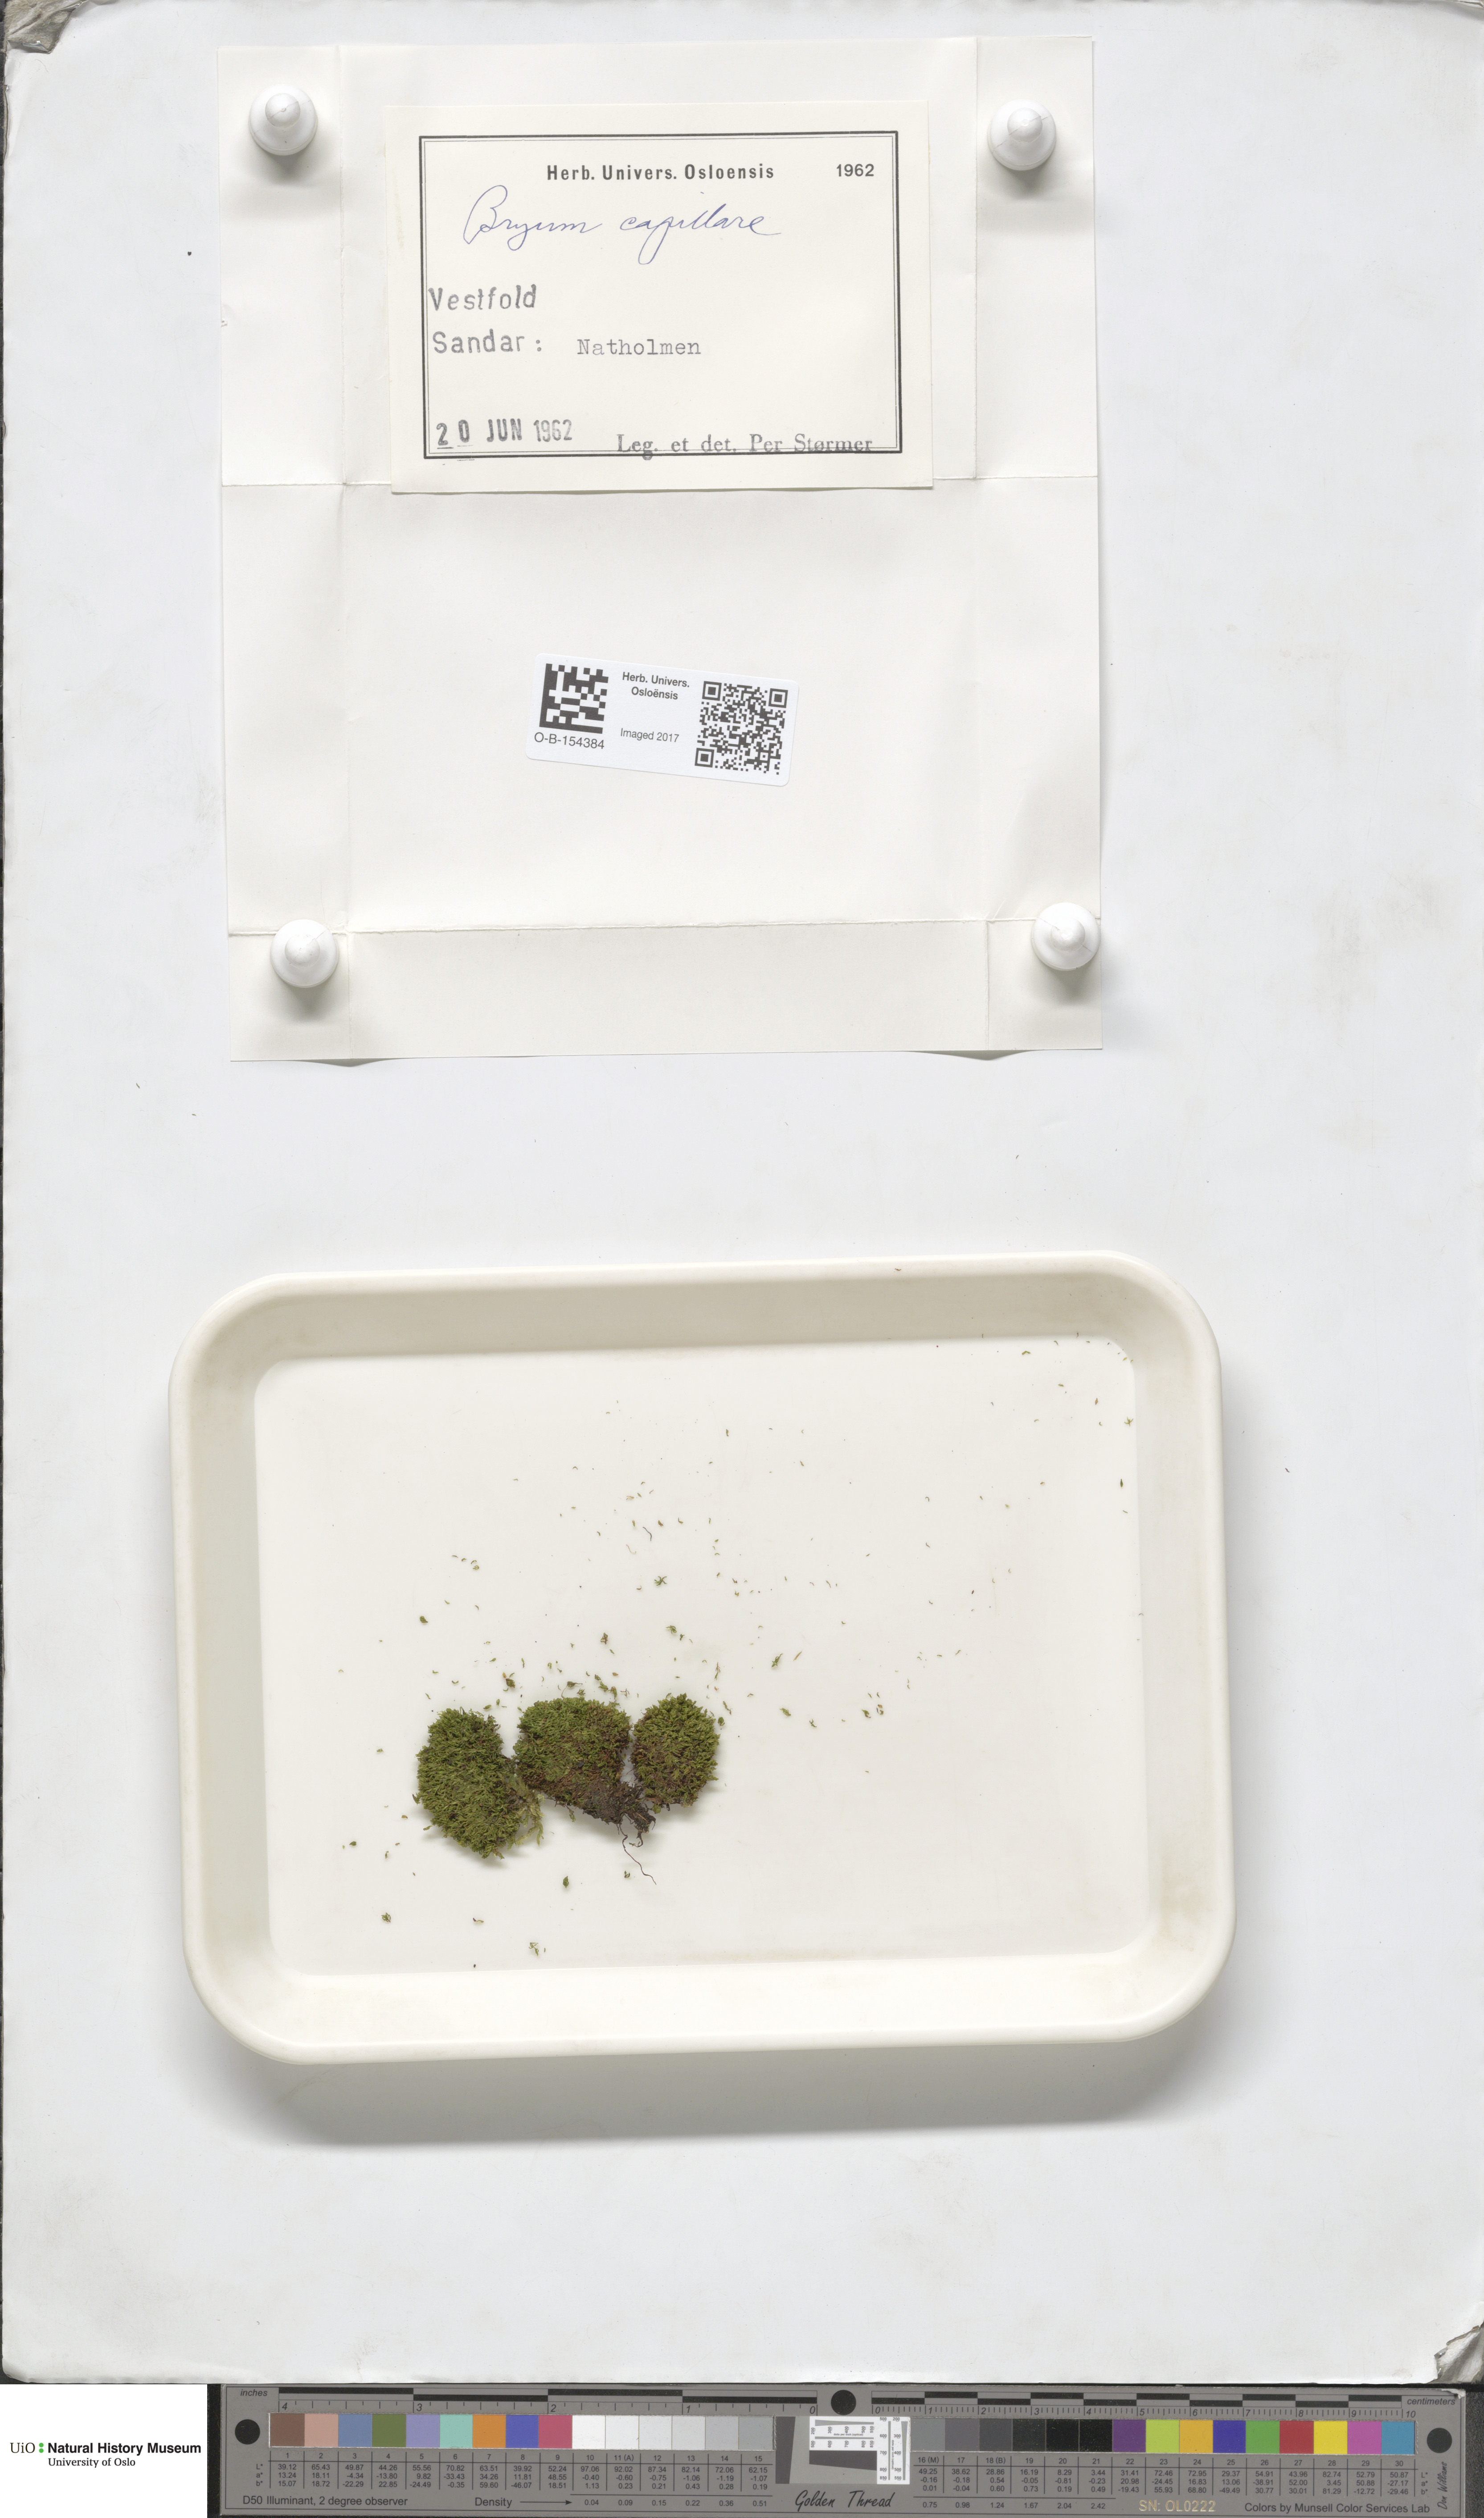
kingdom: Plantae
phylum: Bryophyta
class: Bryopsida
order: Bryales
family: Bryaceae
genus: Rosulabryum
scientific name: Rosulabryum capillare
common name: Capillary thread-moss
